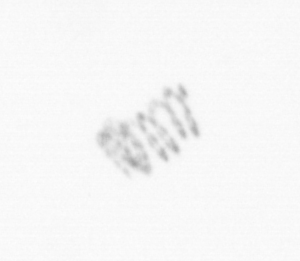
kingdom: Chromista
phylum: Ochrophyta
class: Bacillariophyceae
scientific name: Bacillariophyceae
